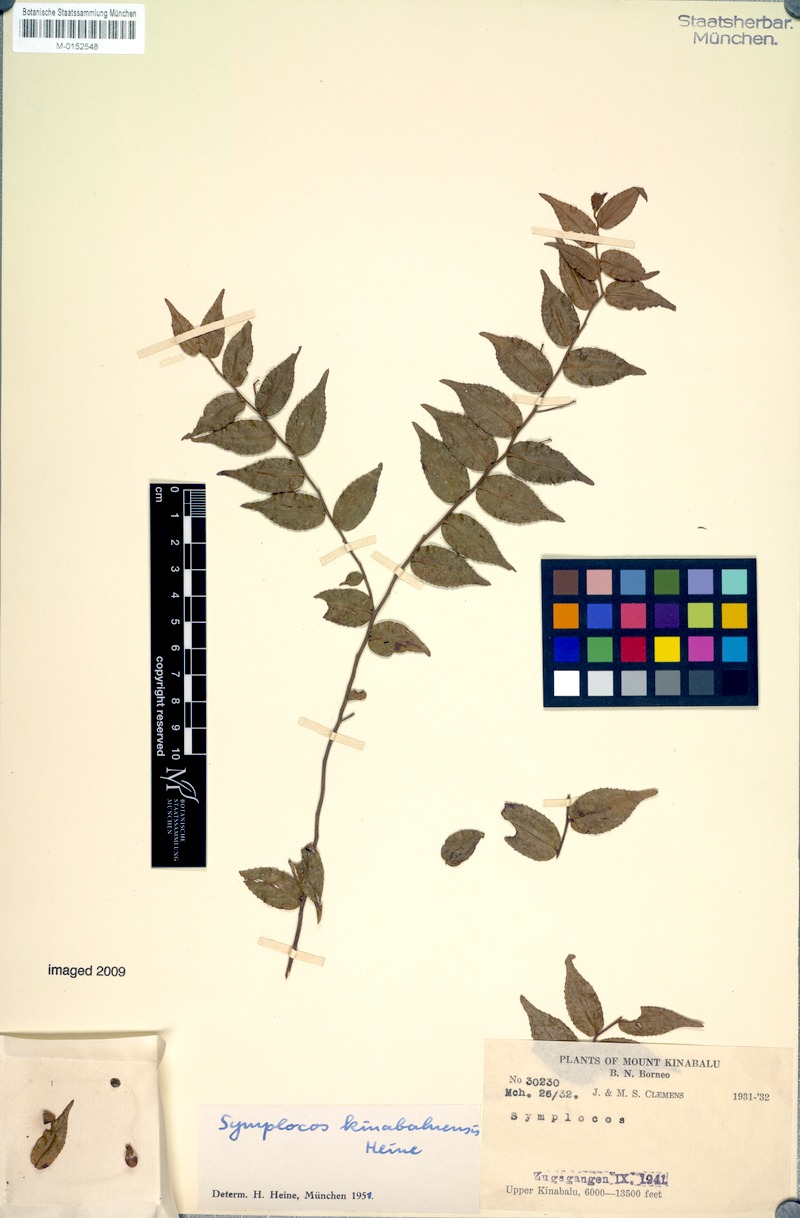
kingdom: Plantae
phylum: Tracheophyta
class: Magnoliopsida
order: Ericales
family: Symplocaceae
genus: Symplocos
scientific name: Symplocos laeteviridis
